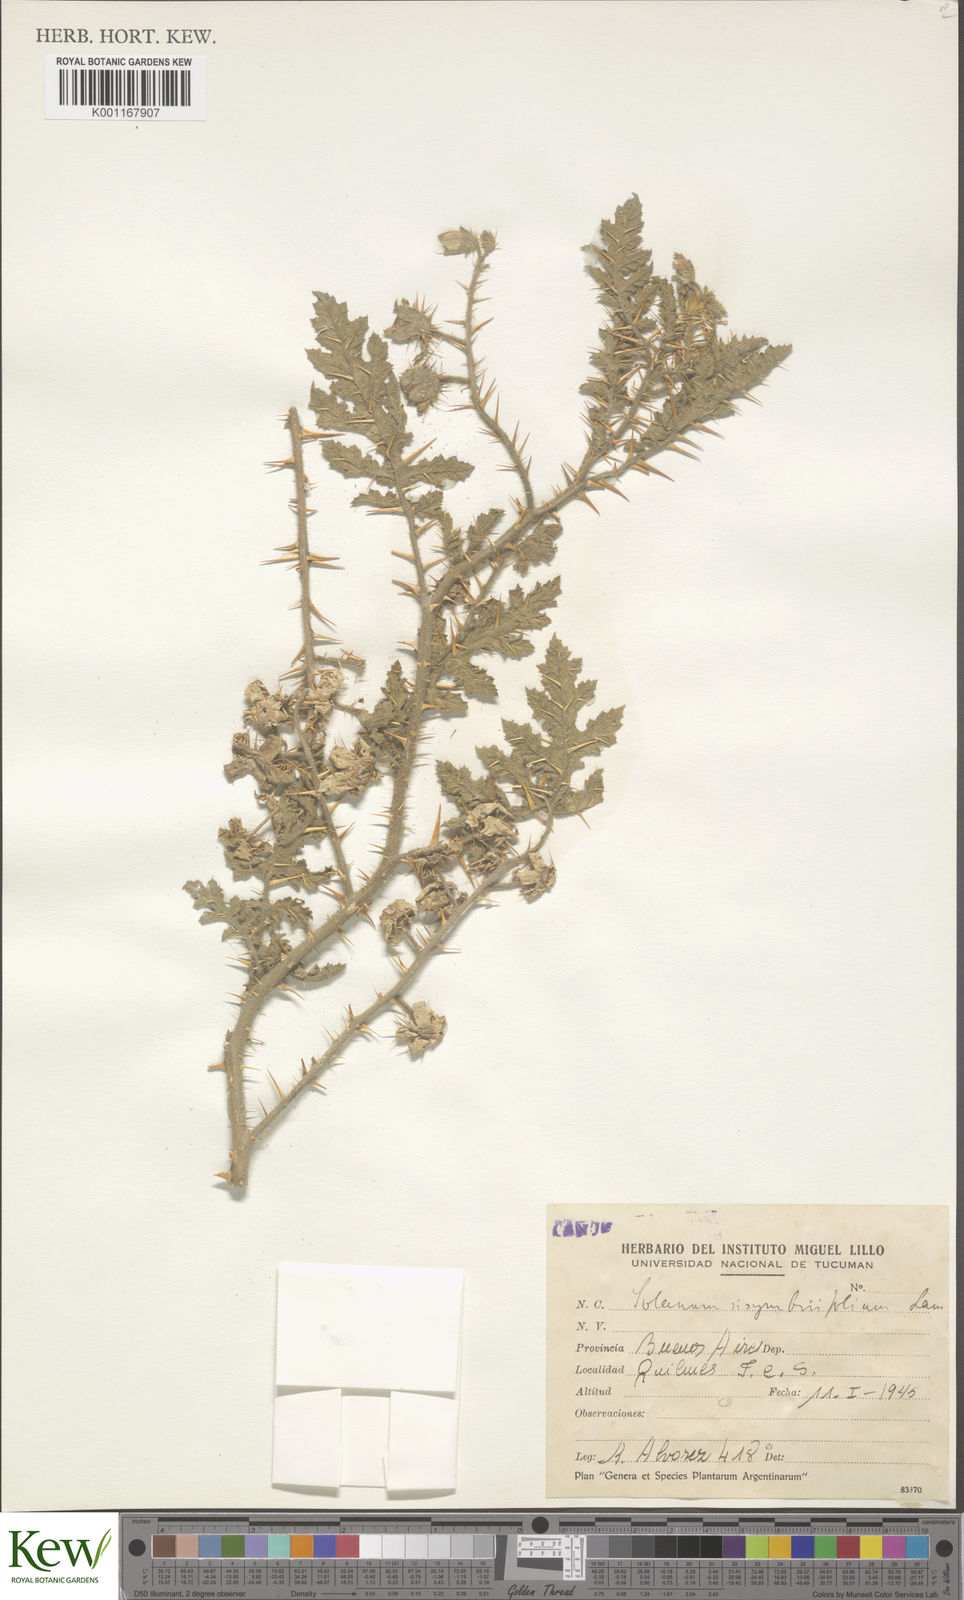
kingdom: Plantae
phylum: Tracheophyta
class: Magnoliopsida
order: Solanales
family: Solanaceae
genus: Solanum
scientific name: Solanum sisymbriifolium
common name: Red buffalo-bur
